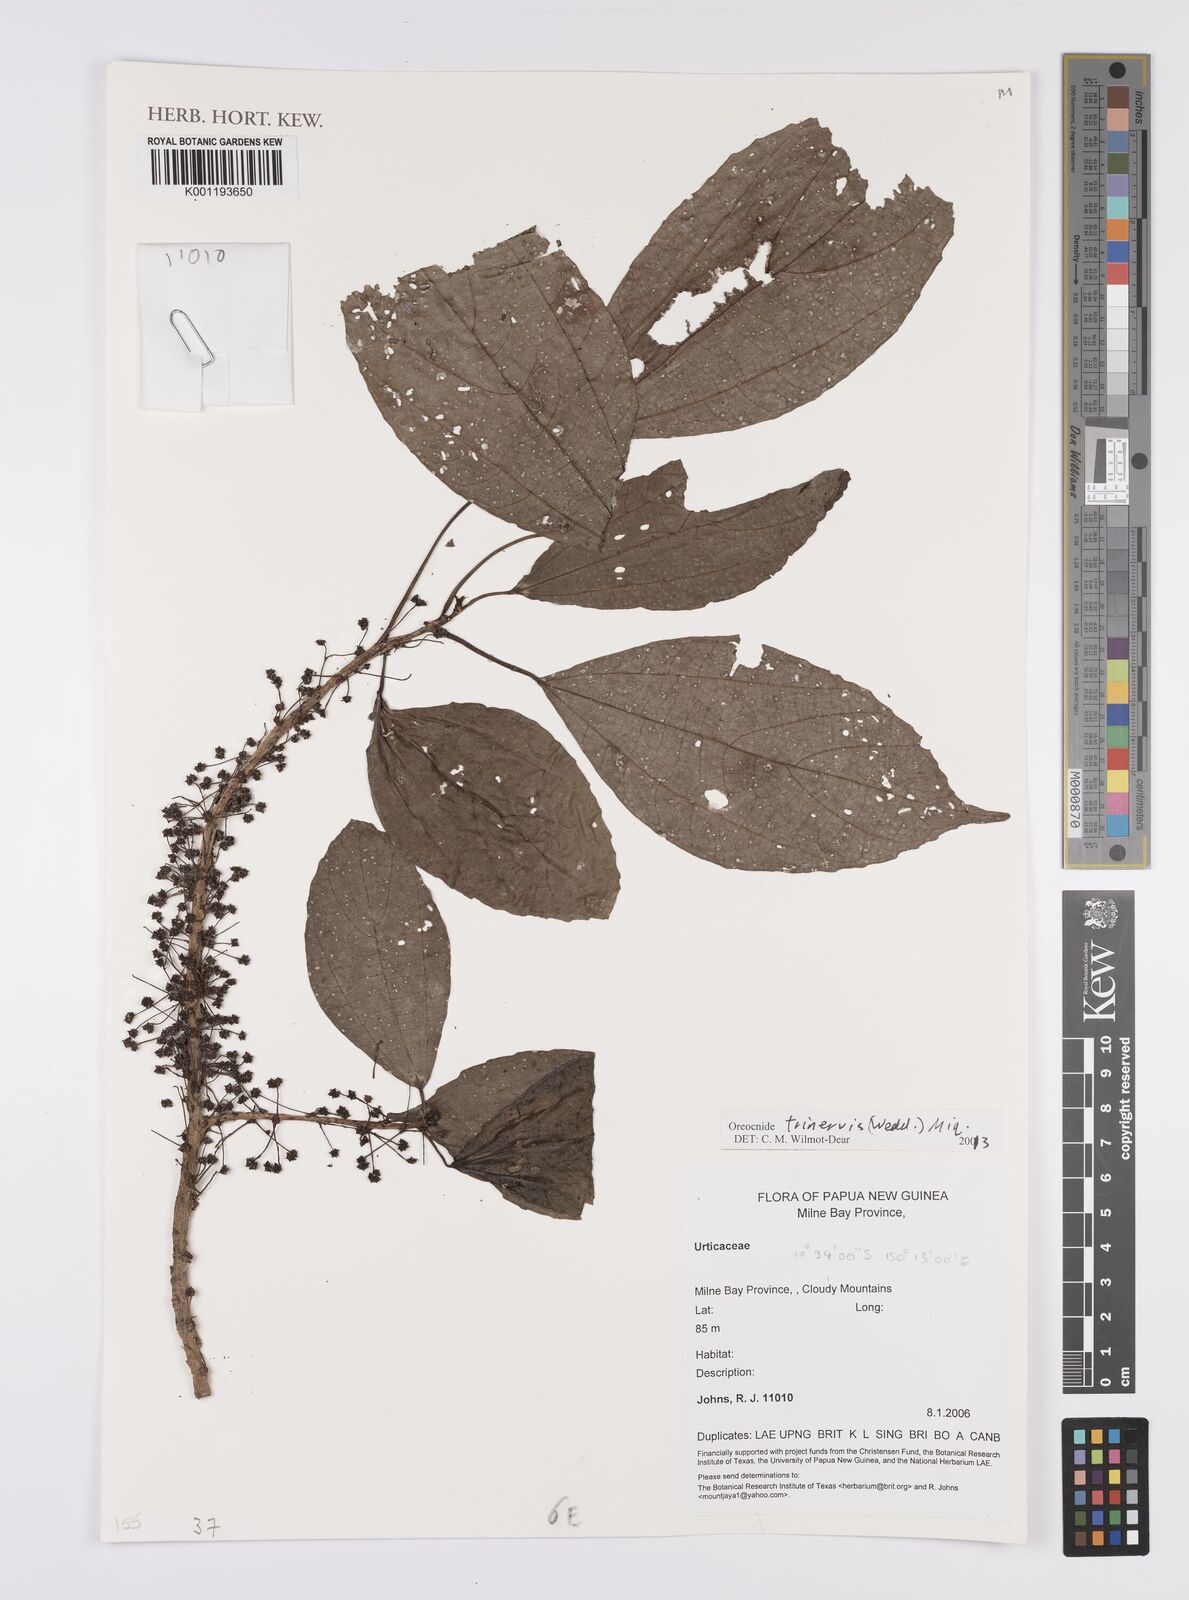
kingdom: Plantae
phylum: Tracheophyta
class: Magnoliopsida
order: Rosales
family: Urticaceae
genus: Oreocnide
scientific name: Oreocnide trinervis
